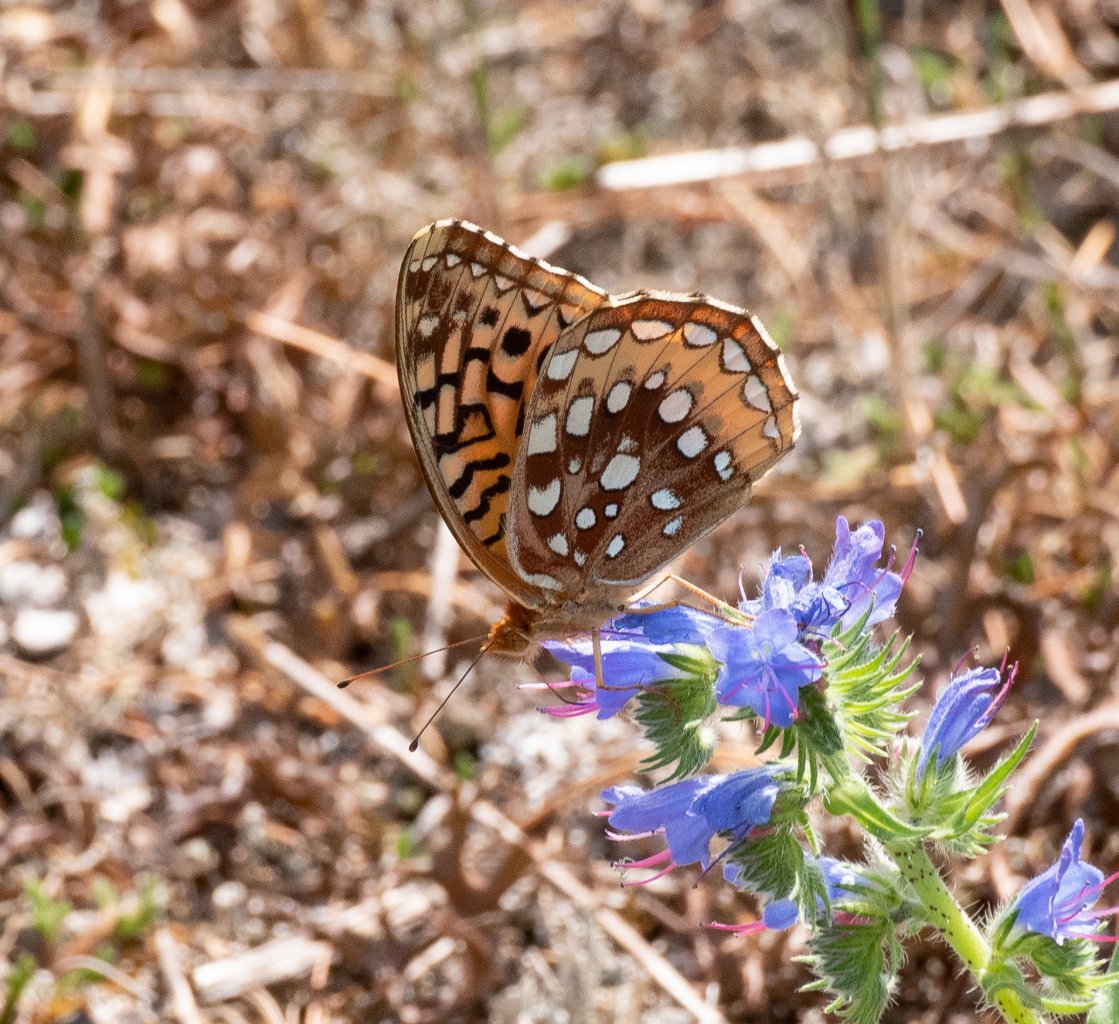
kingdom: Animalia
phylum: Arthropoda
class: Insecta
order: Lepidoptera
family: Nymphalidae
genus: Speyeria
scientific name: Speyeria cybele
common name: Great Spangled Fritillary
